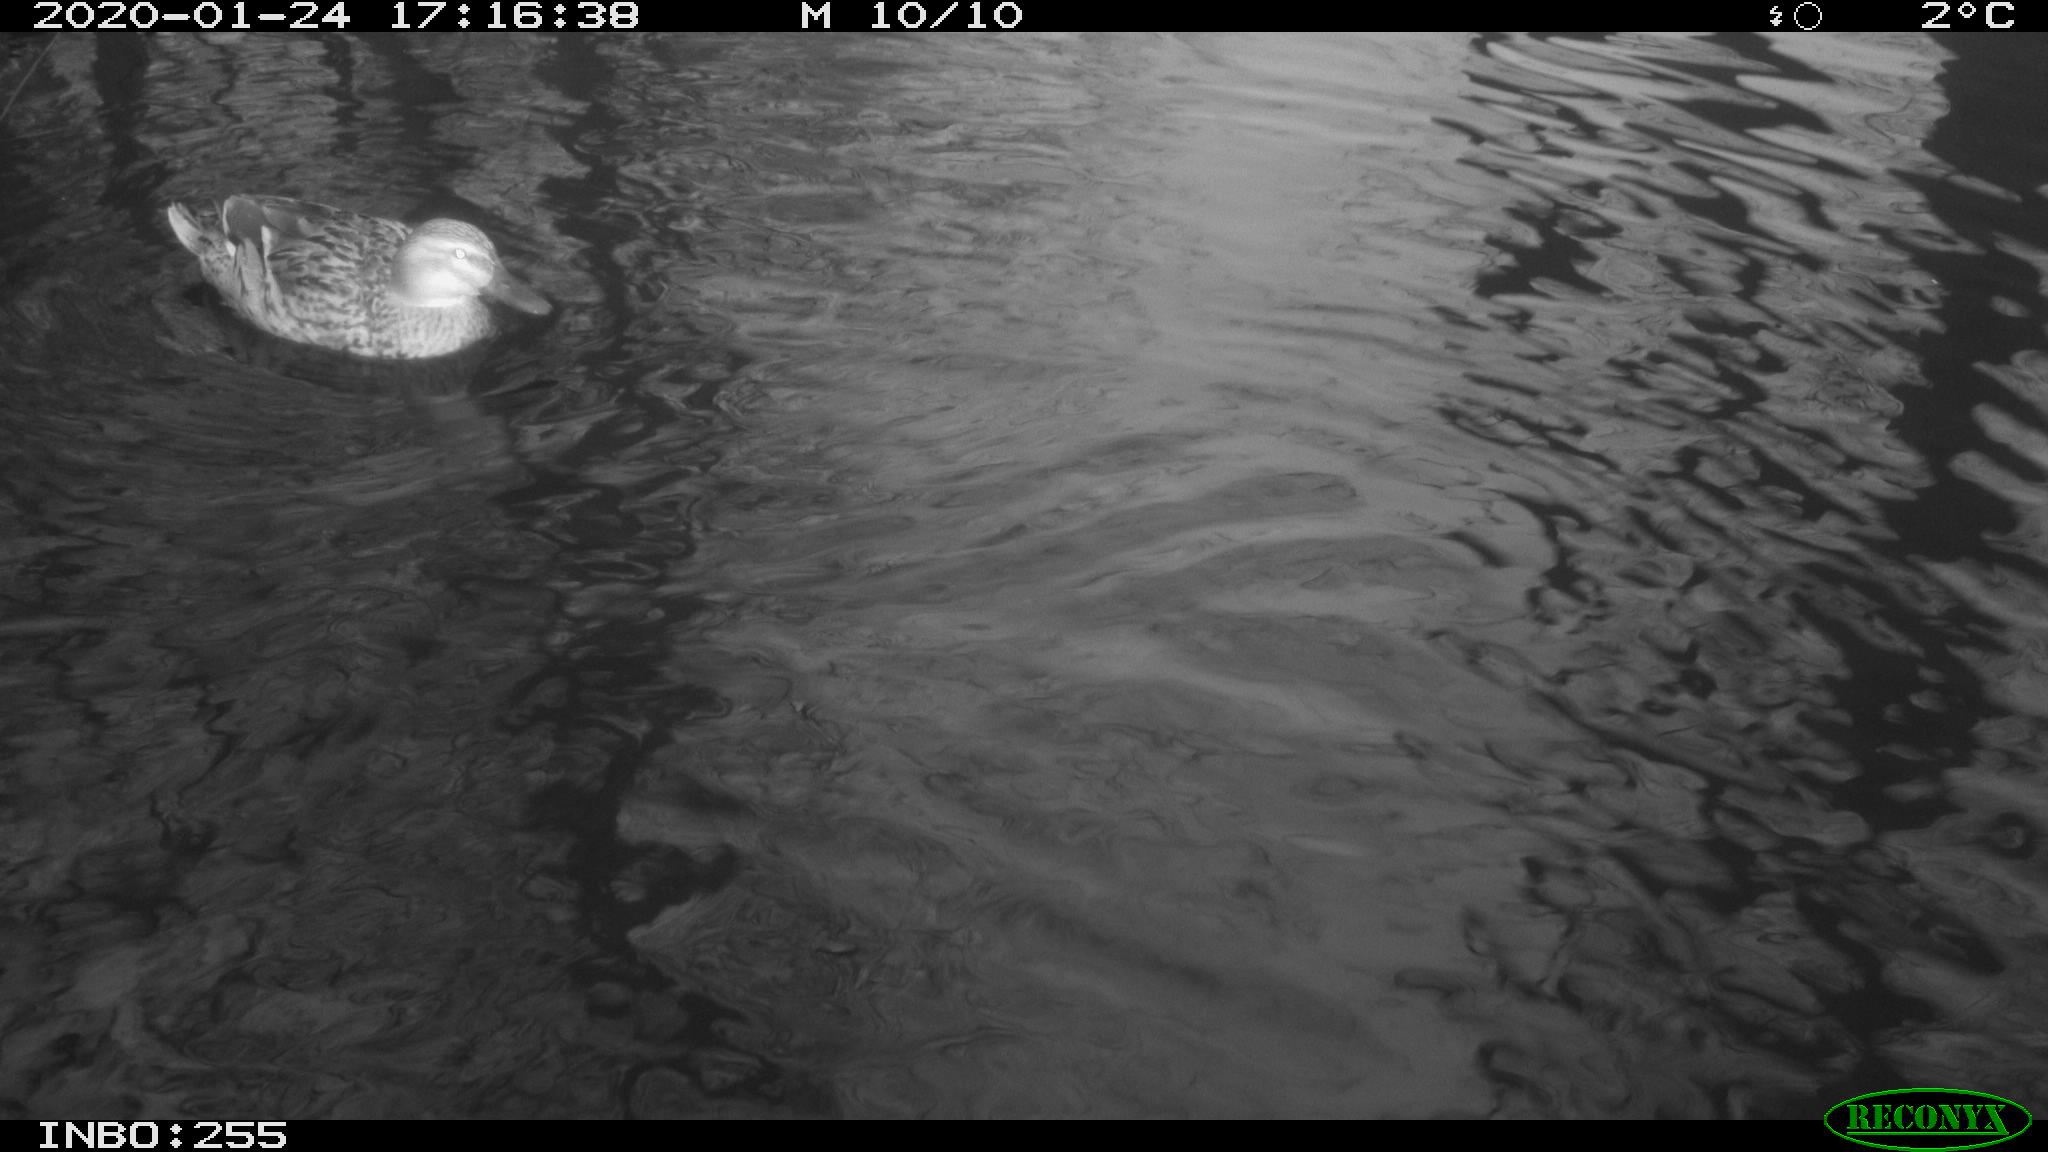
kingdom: Animalia
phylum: Chordata
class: Aves
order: Anseriformes
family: Anatidae
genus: Anas
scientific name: Anas platyrhynchos
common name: Mallard
